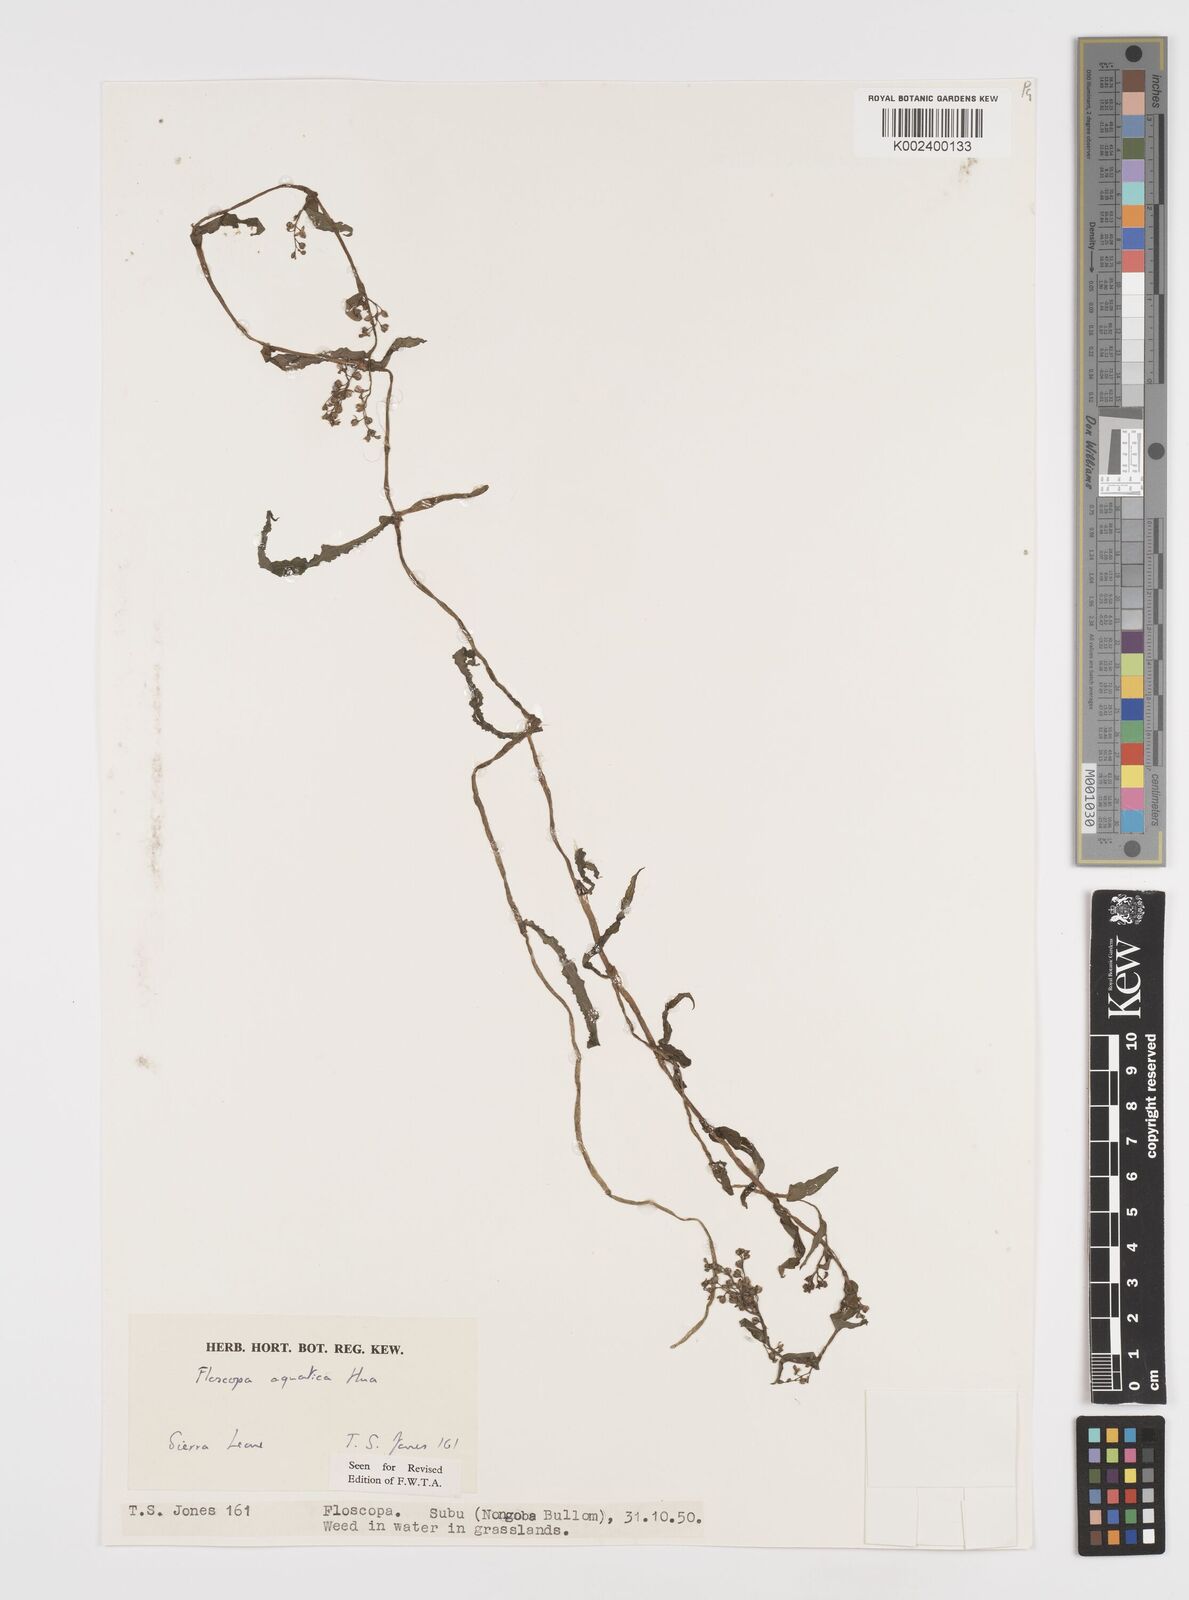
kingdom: Plantae
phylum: Tracheophyta
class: Liliopsida
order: Commelinales
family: Commelinaceae
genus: Floscopa
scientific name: Floscopa aquatica
